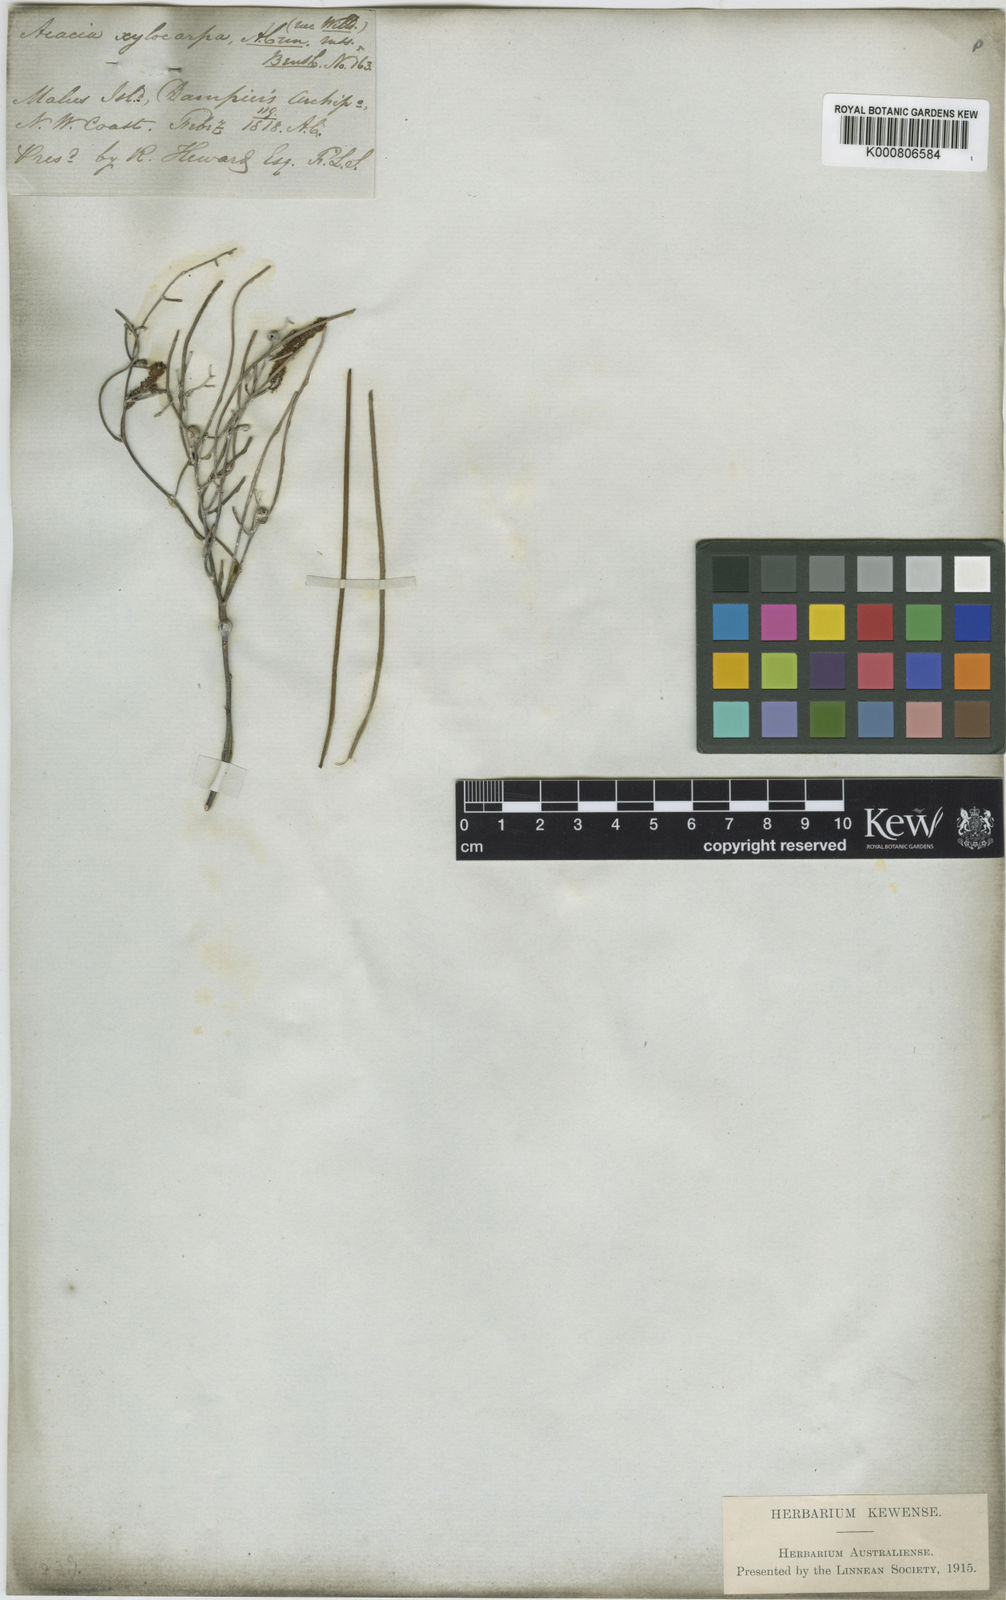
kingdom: Plantae
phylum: Tracheophyta
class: Magnoliopsida
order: Fabales
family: Fabaceae
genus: Acacia
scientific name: Acacia
